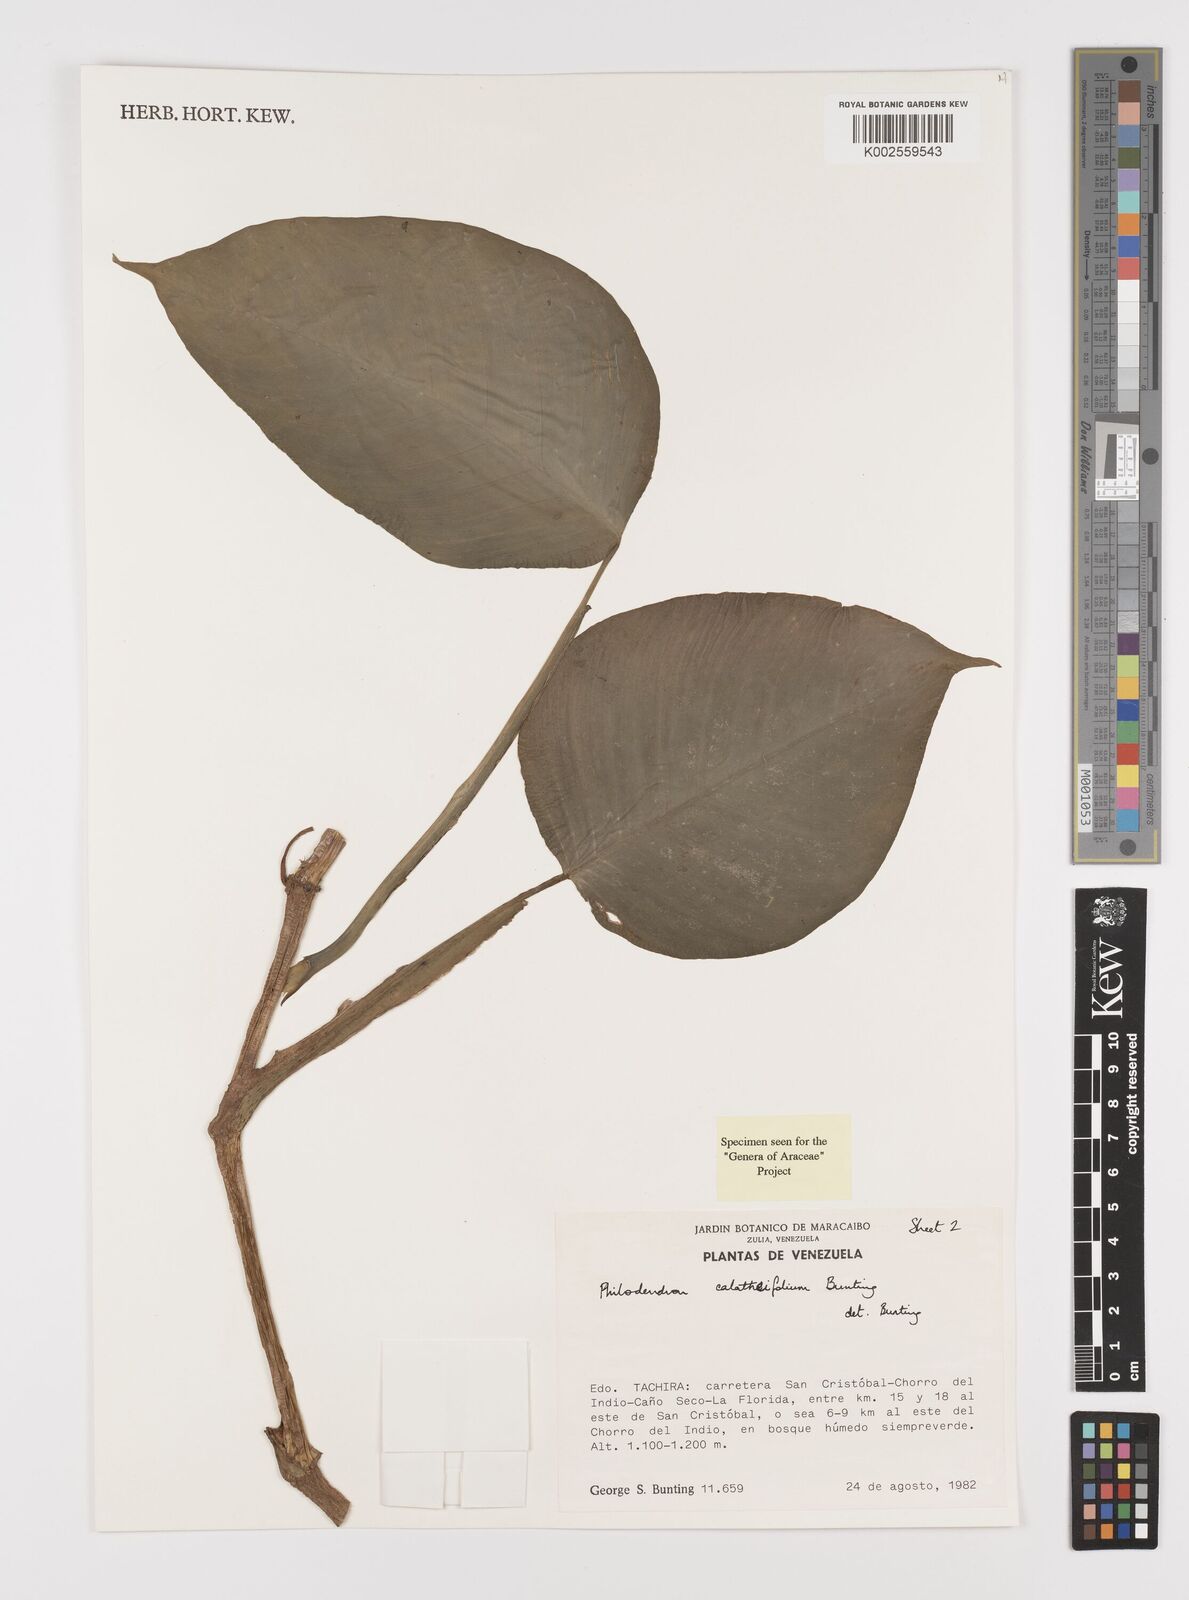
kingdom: Plantae
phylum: Tracheophyta
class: Liliopsida
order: Alismatales
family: Araceae
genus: Philodendron
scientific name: Philodendron calatheifolium
